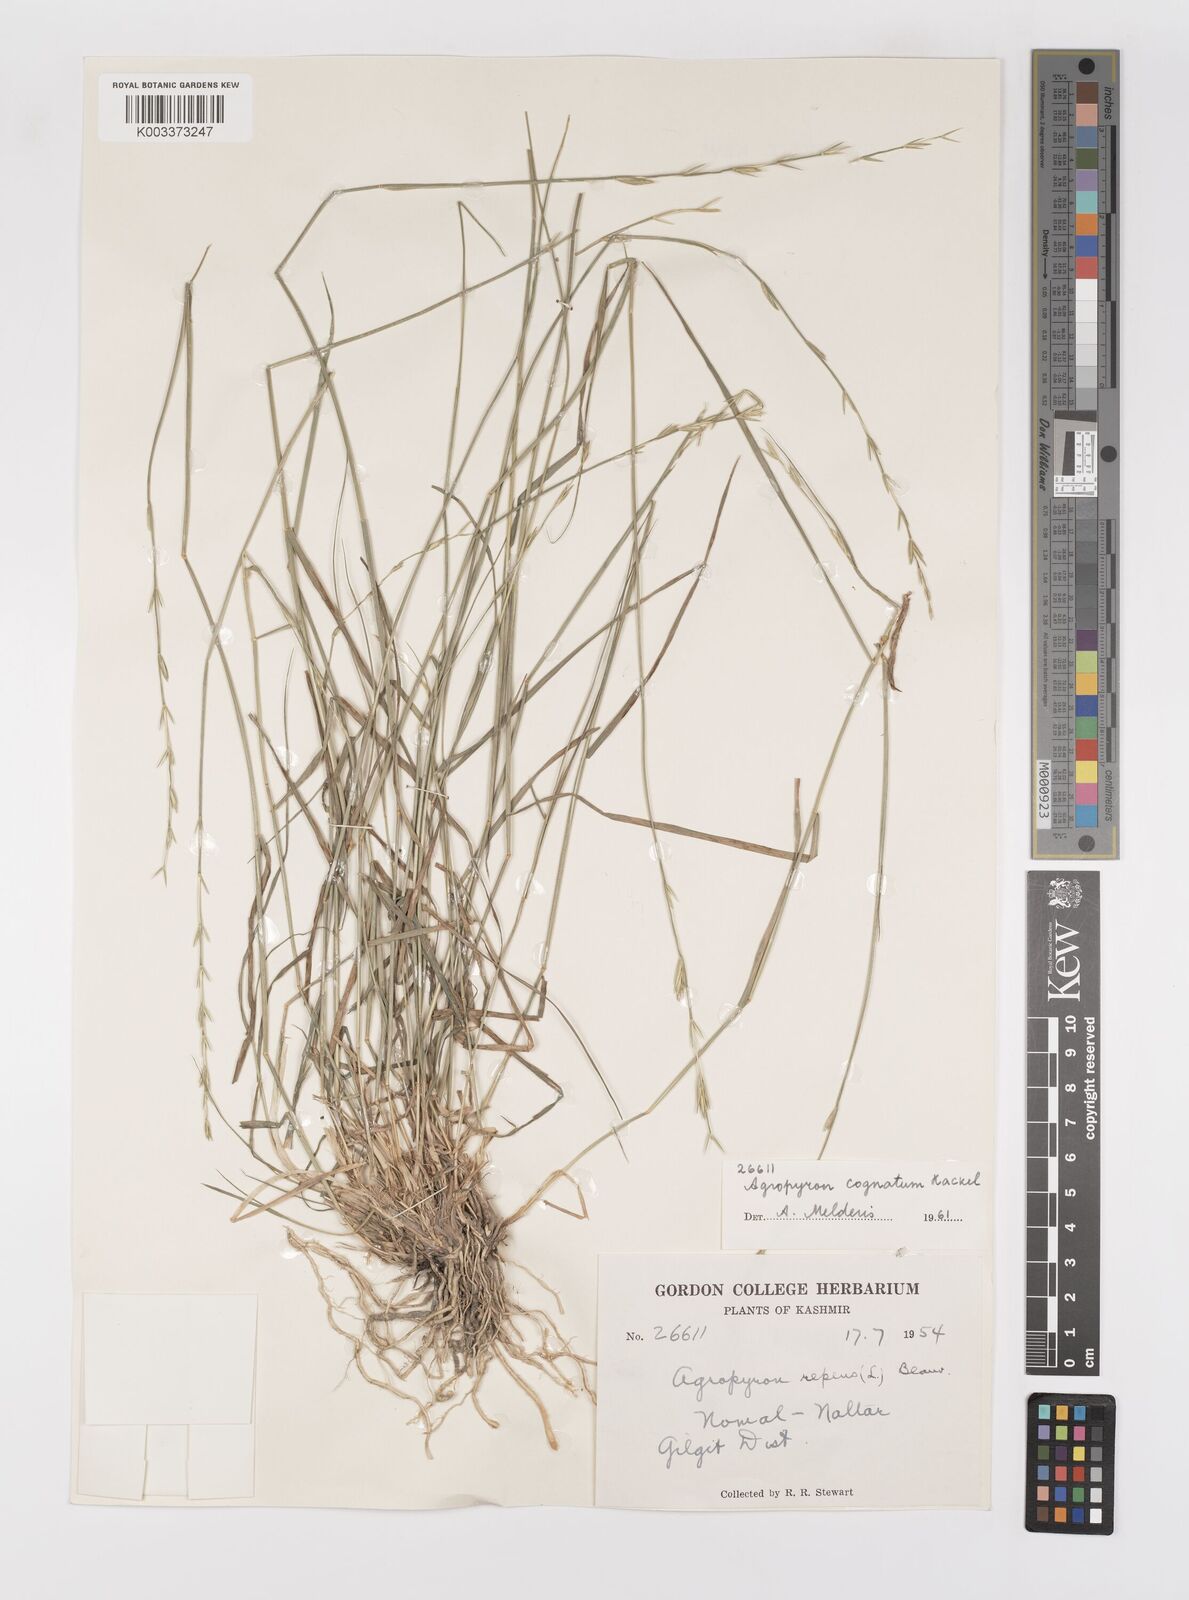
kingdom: Plantae
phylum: Tracheophyta
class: Liliopsida
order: Poales
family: Poaceae
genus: Pseudoroegneria
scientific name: Pseudoroegneria cognata
